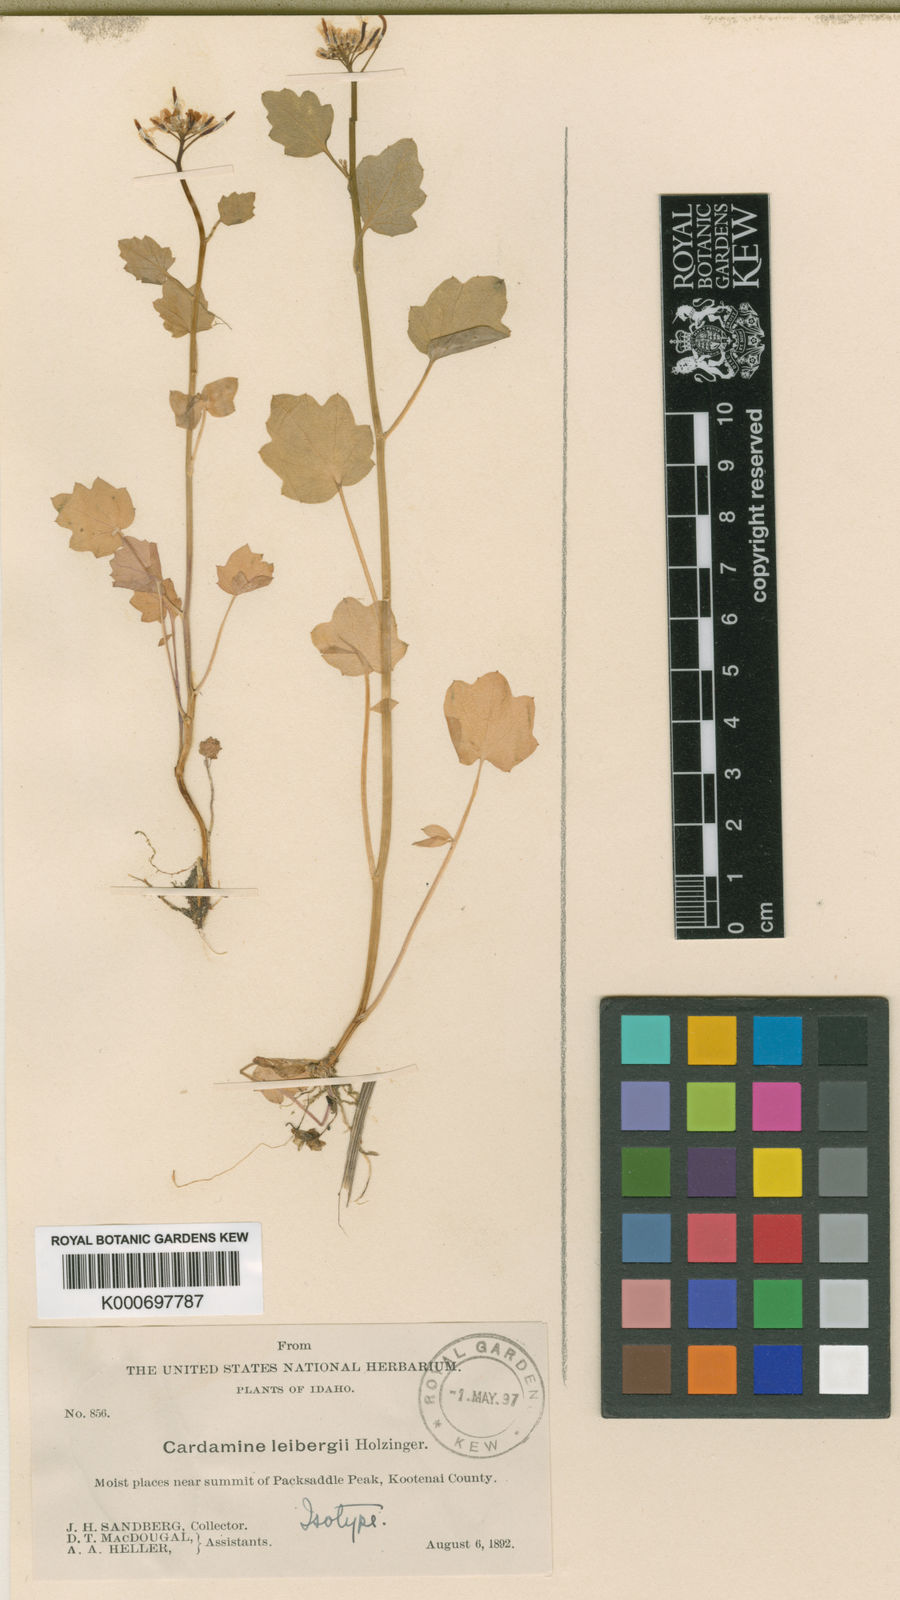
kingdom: Plantae
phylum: Tracheophyta
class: Magnoliopsida
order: Brassicales
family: Brassicaceae
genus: Cardamine
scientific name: Cardamine breweri
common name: Brewer's bittercress
